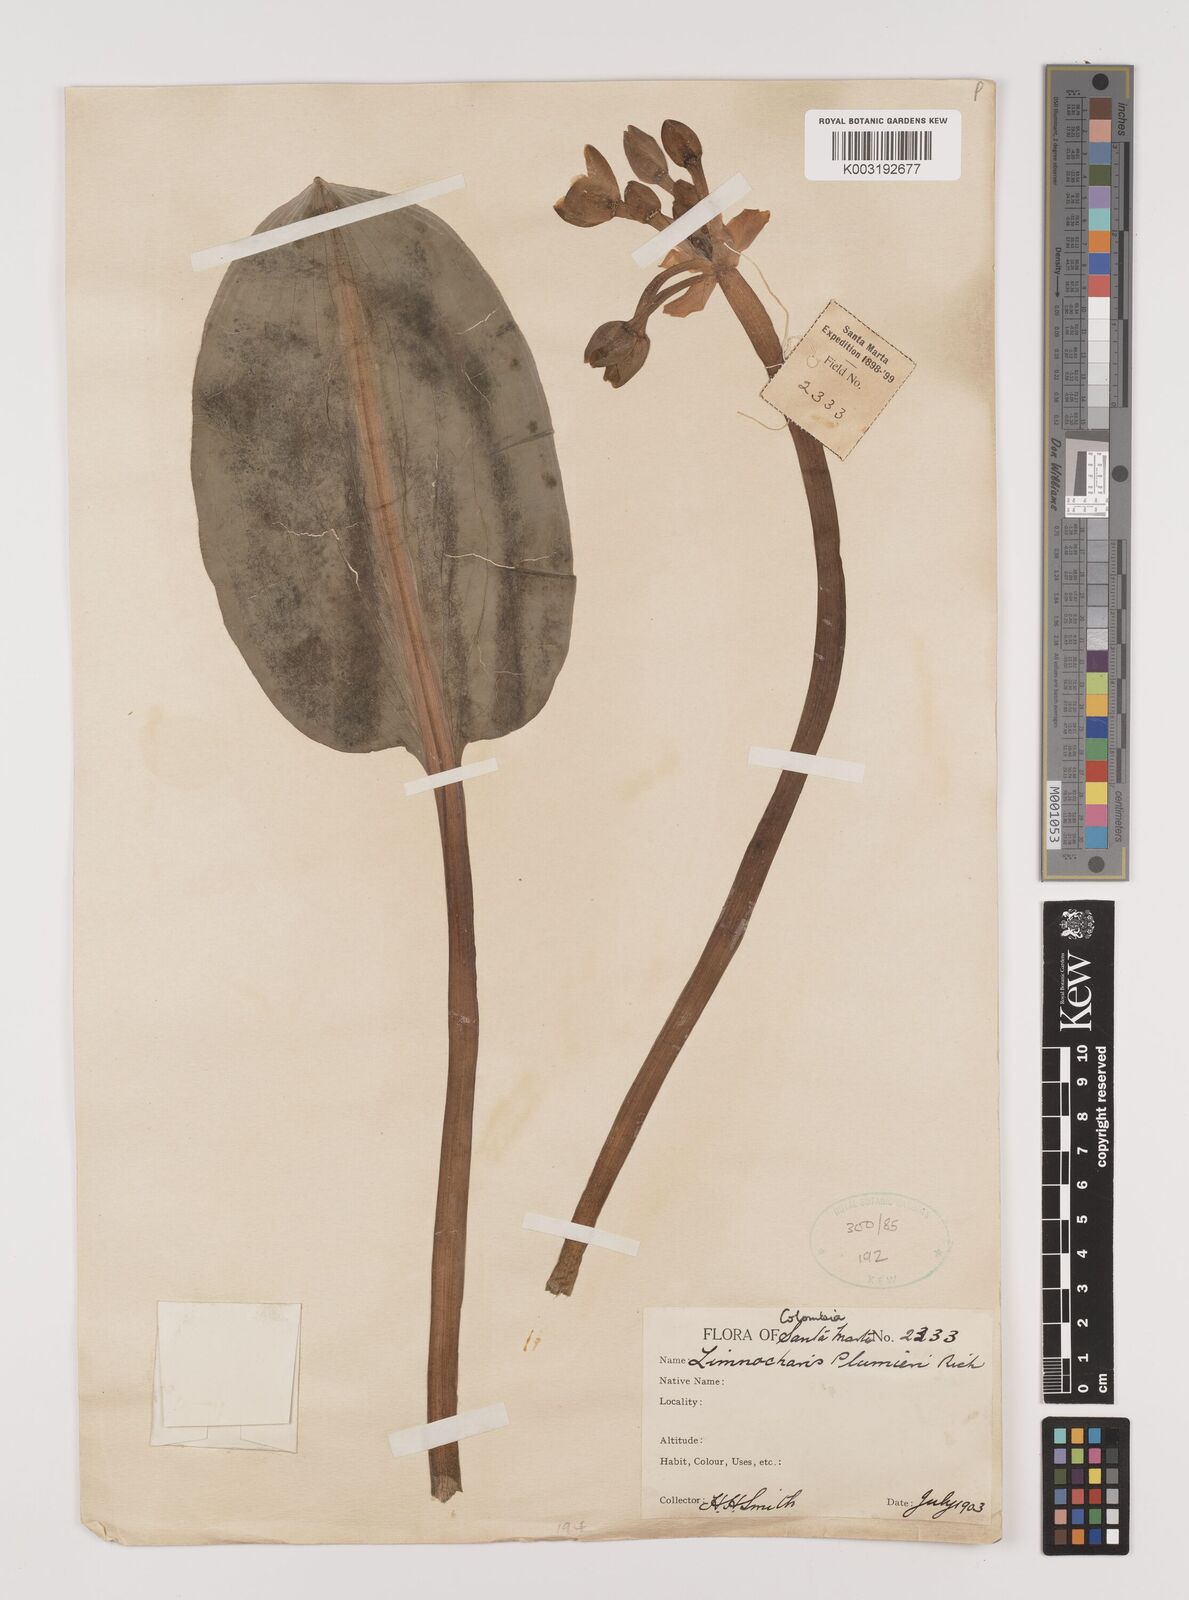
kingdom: Plantae
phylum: Tracheophyta
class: Liliopsida
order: Alismatales
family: Alismataceae
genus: Limnocharis
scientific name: Limnocharis flava
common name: Sawah-flower-rush
